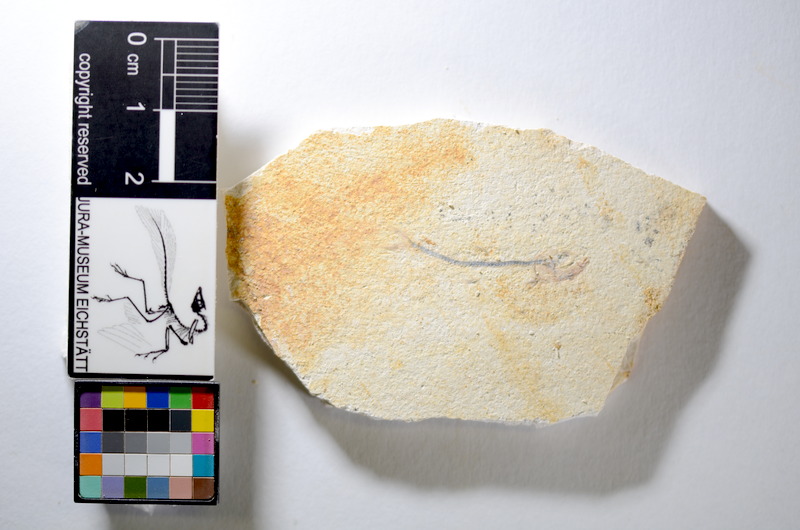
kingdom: Animalia
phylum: Chordata
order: Salmoniformes
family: Orthogonikleithridae
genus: Orthogonikleithrus
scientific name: Orthogonikleithrus hoelli
